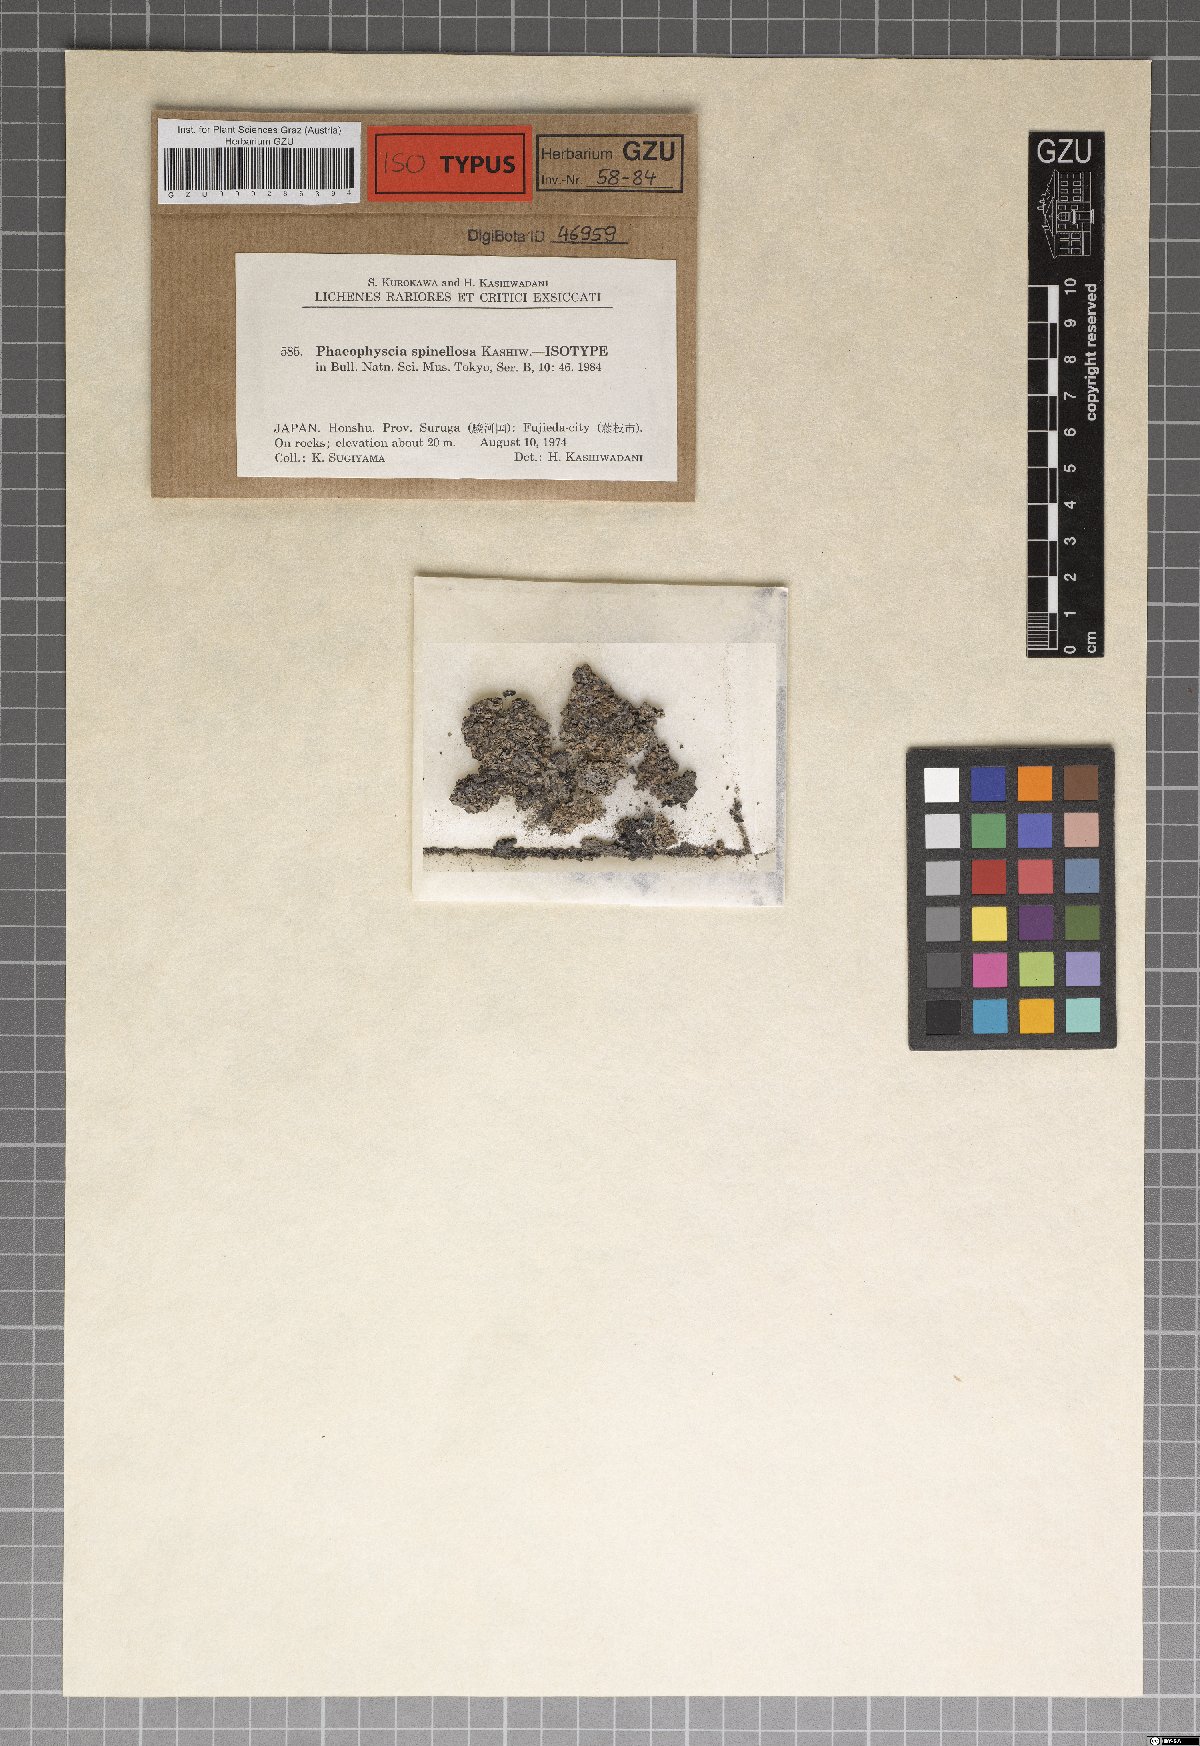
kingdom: Fungi
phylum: Ascomycota
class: Lecanoromycetes
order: Caliciales
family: Physciaceae
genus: Phaeophyscia
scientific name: Phaeophyscia spinellosa
